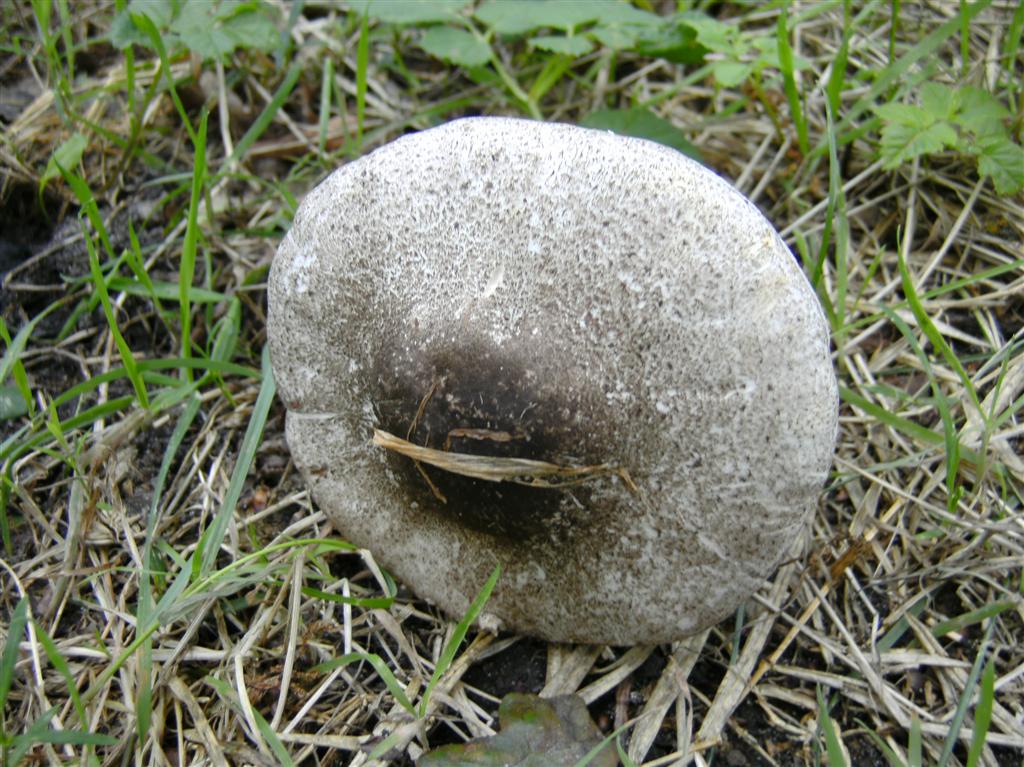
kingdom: Fungi
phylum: Basidiomycota
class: Agaricomycetes
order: Agaricales
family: Agaricaceae
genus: Agaricus
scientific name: Agaricus moelleri
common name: perlehøne-champignon
